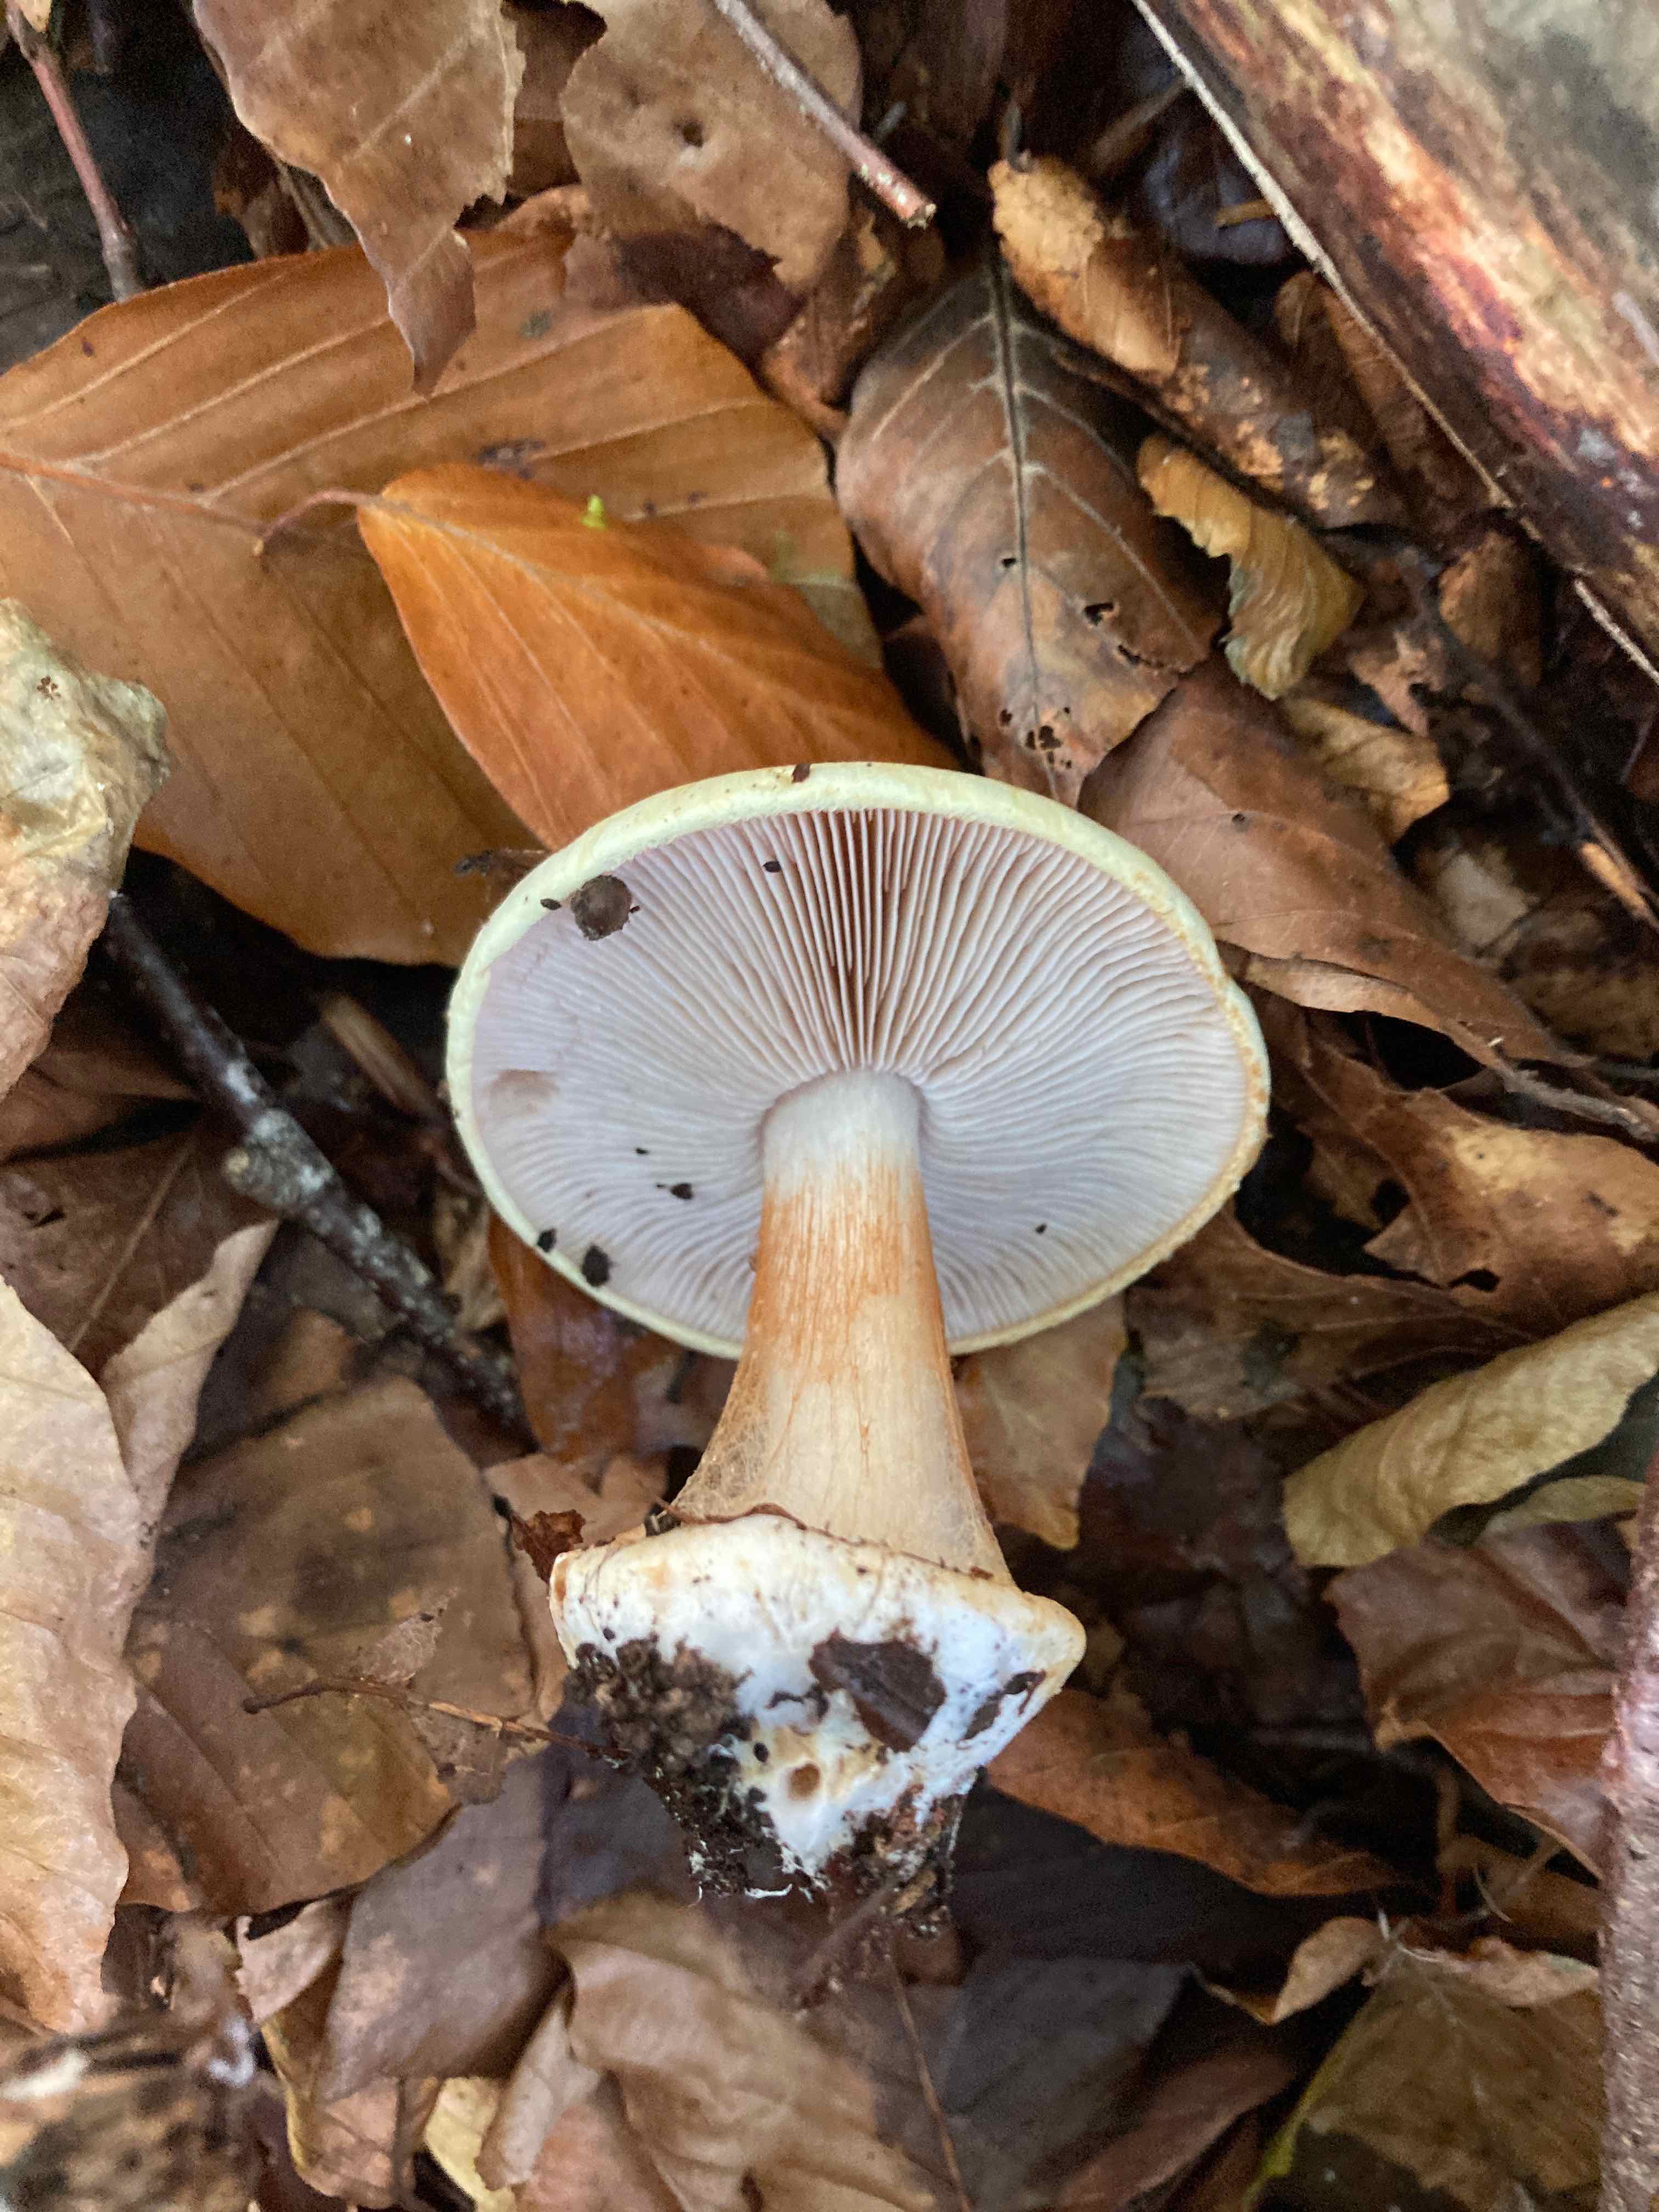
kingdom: Fungi
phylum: Basidiomycota
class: Agaricomycetes
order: Agaricales
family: Cortinariaceae
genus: Cortinarius
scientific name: Cortinarius
